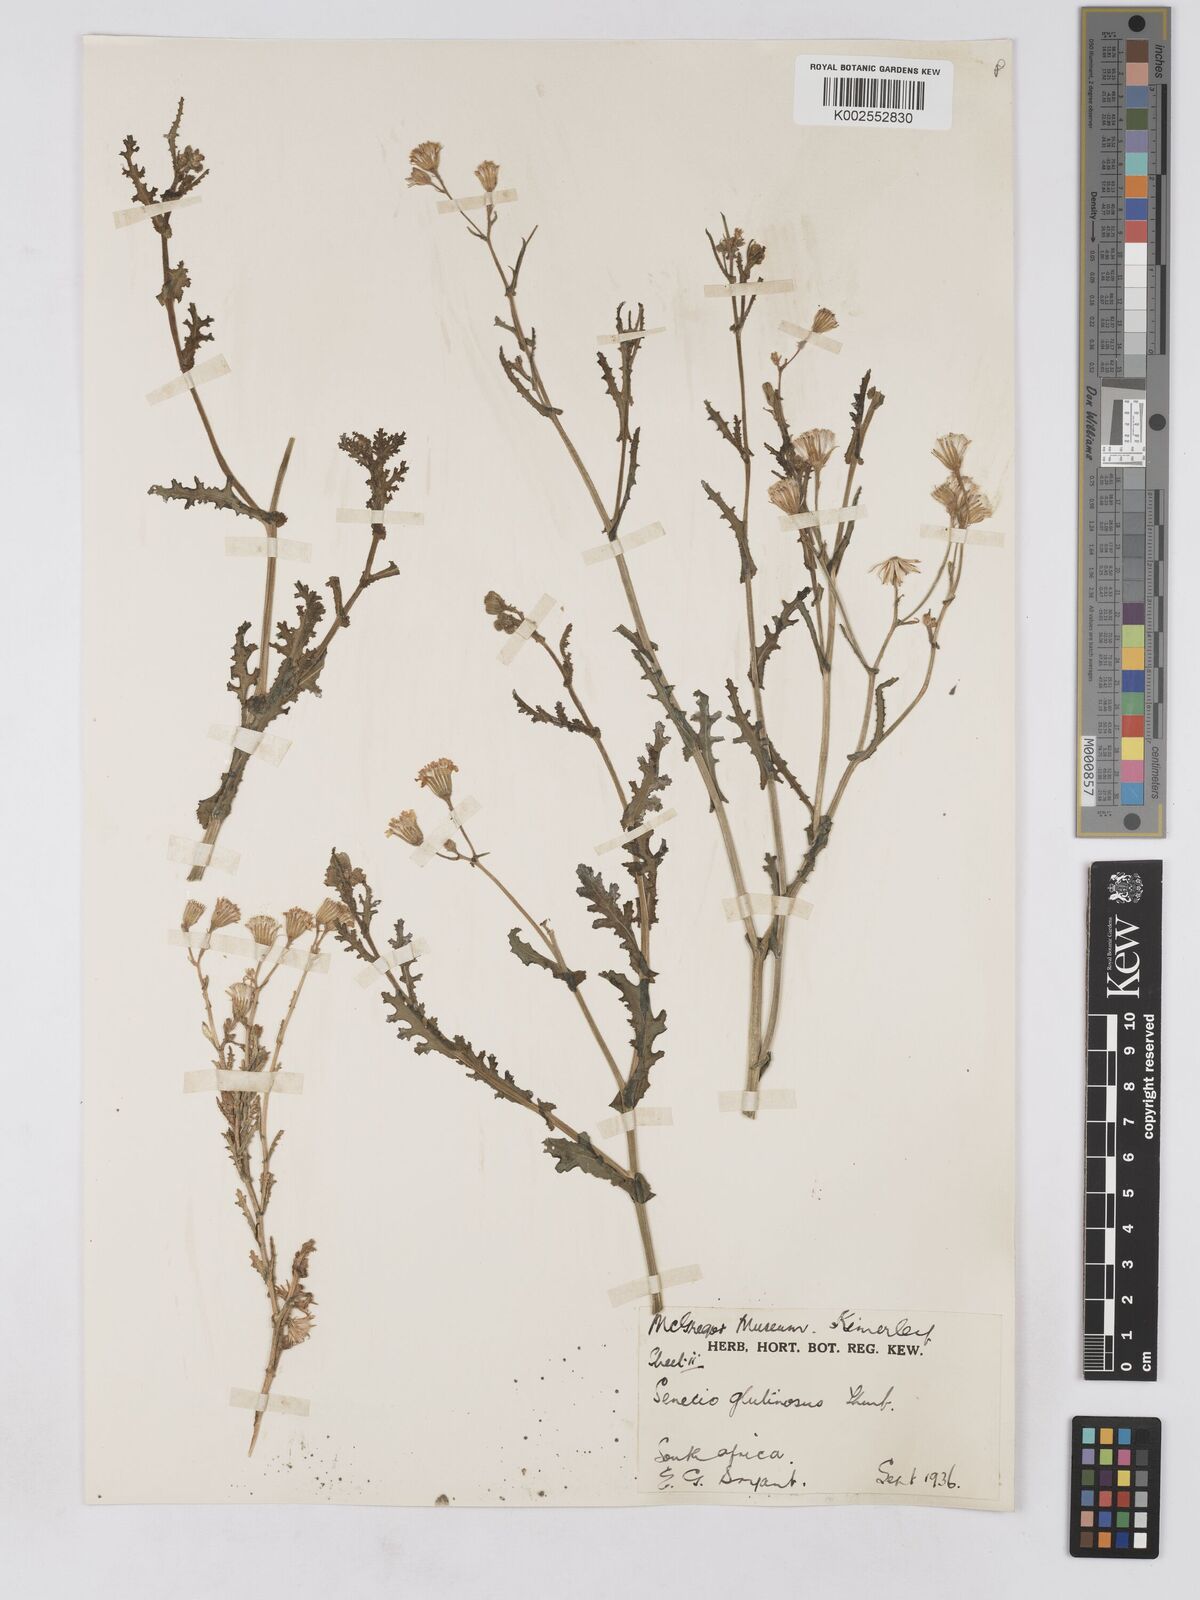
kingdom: Plantae
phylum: Tracheophyta
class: Magnoliopsida
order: Asterales
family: Asteraceae
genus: Senecio
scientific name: Senecio consanguineus
